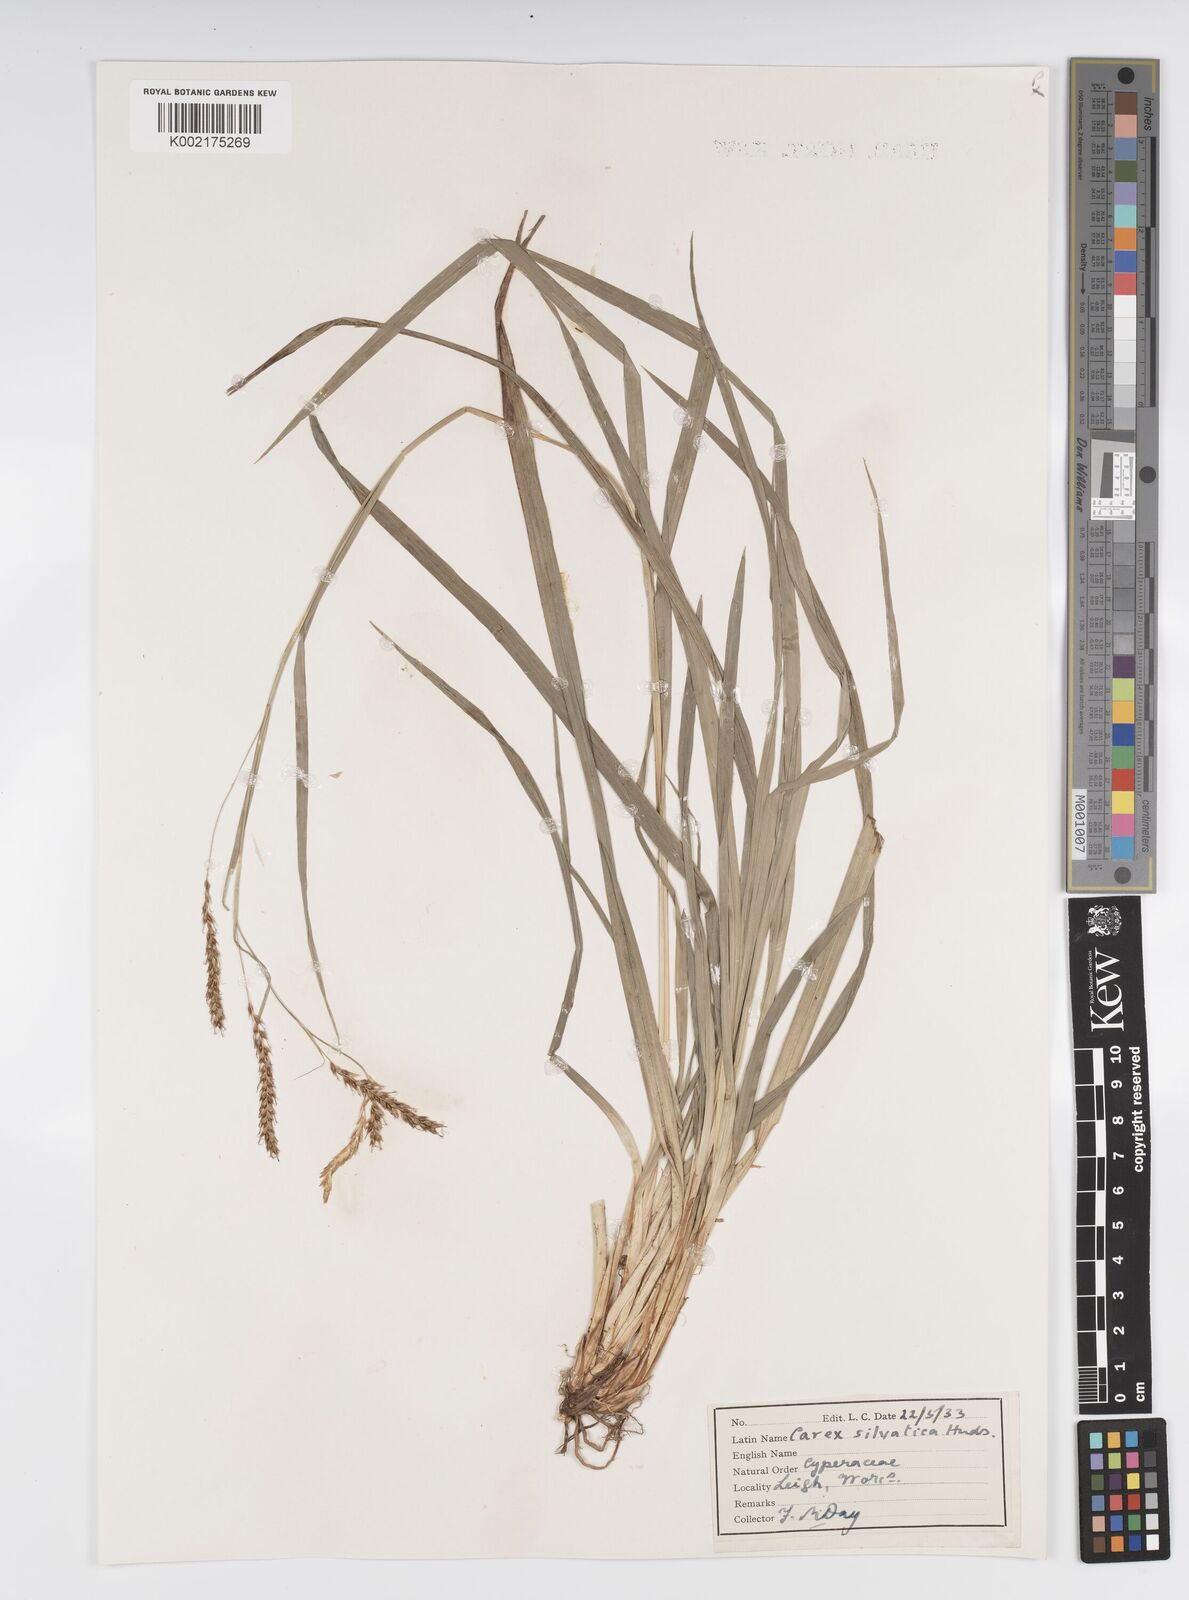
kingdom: Plantae
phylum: Tracheophyta
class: Liliopsida
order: Poales
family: Cyperaceae
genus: Carex
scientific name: Carex sylvatica
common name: Wood-sedge
